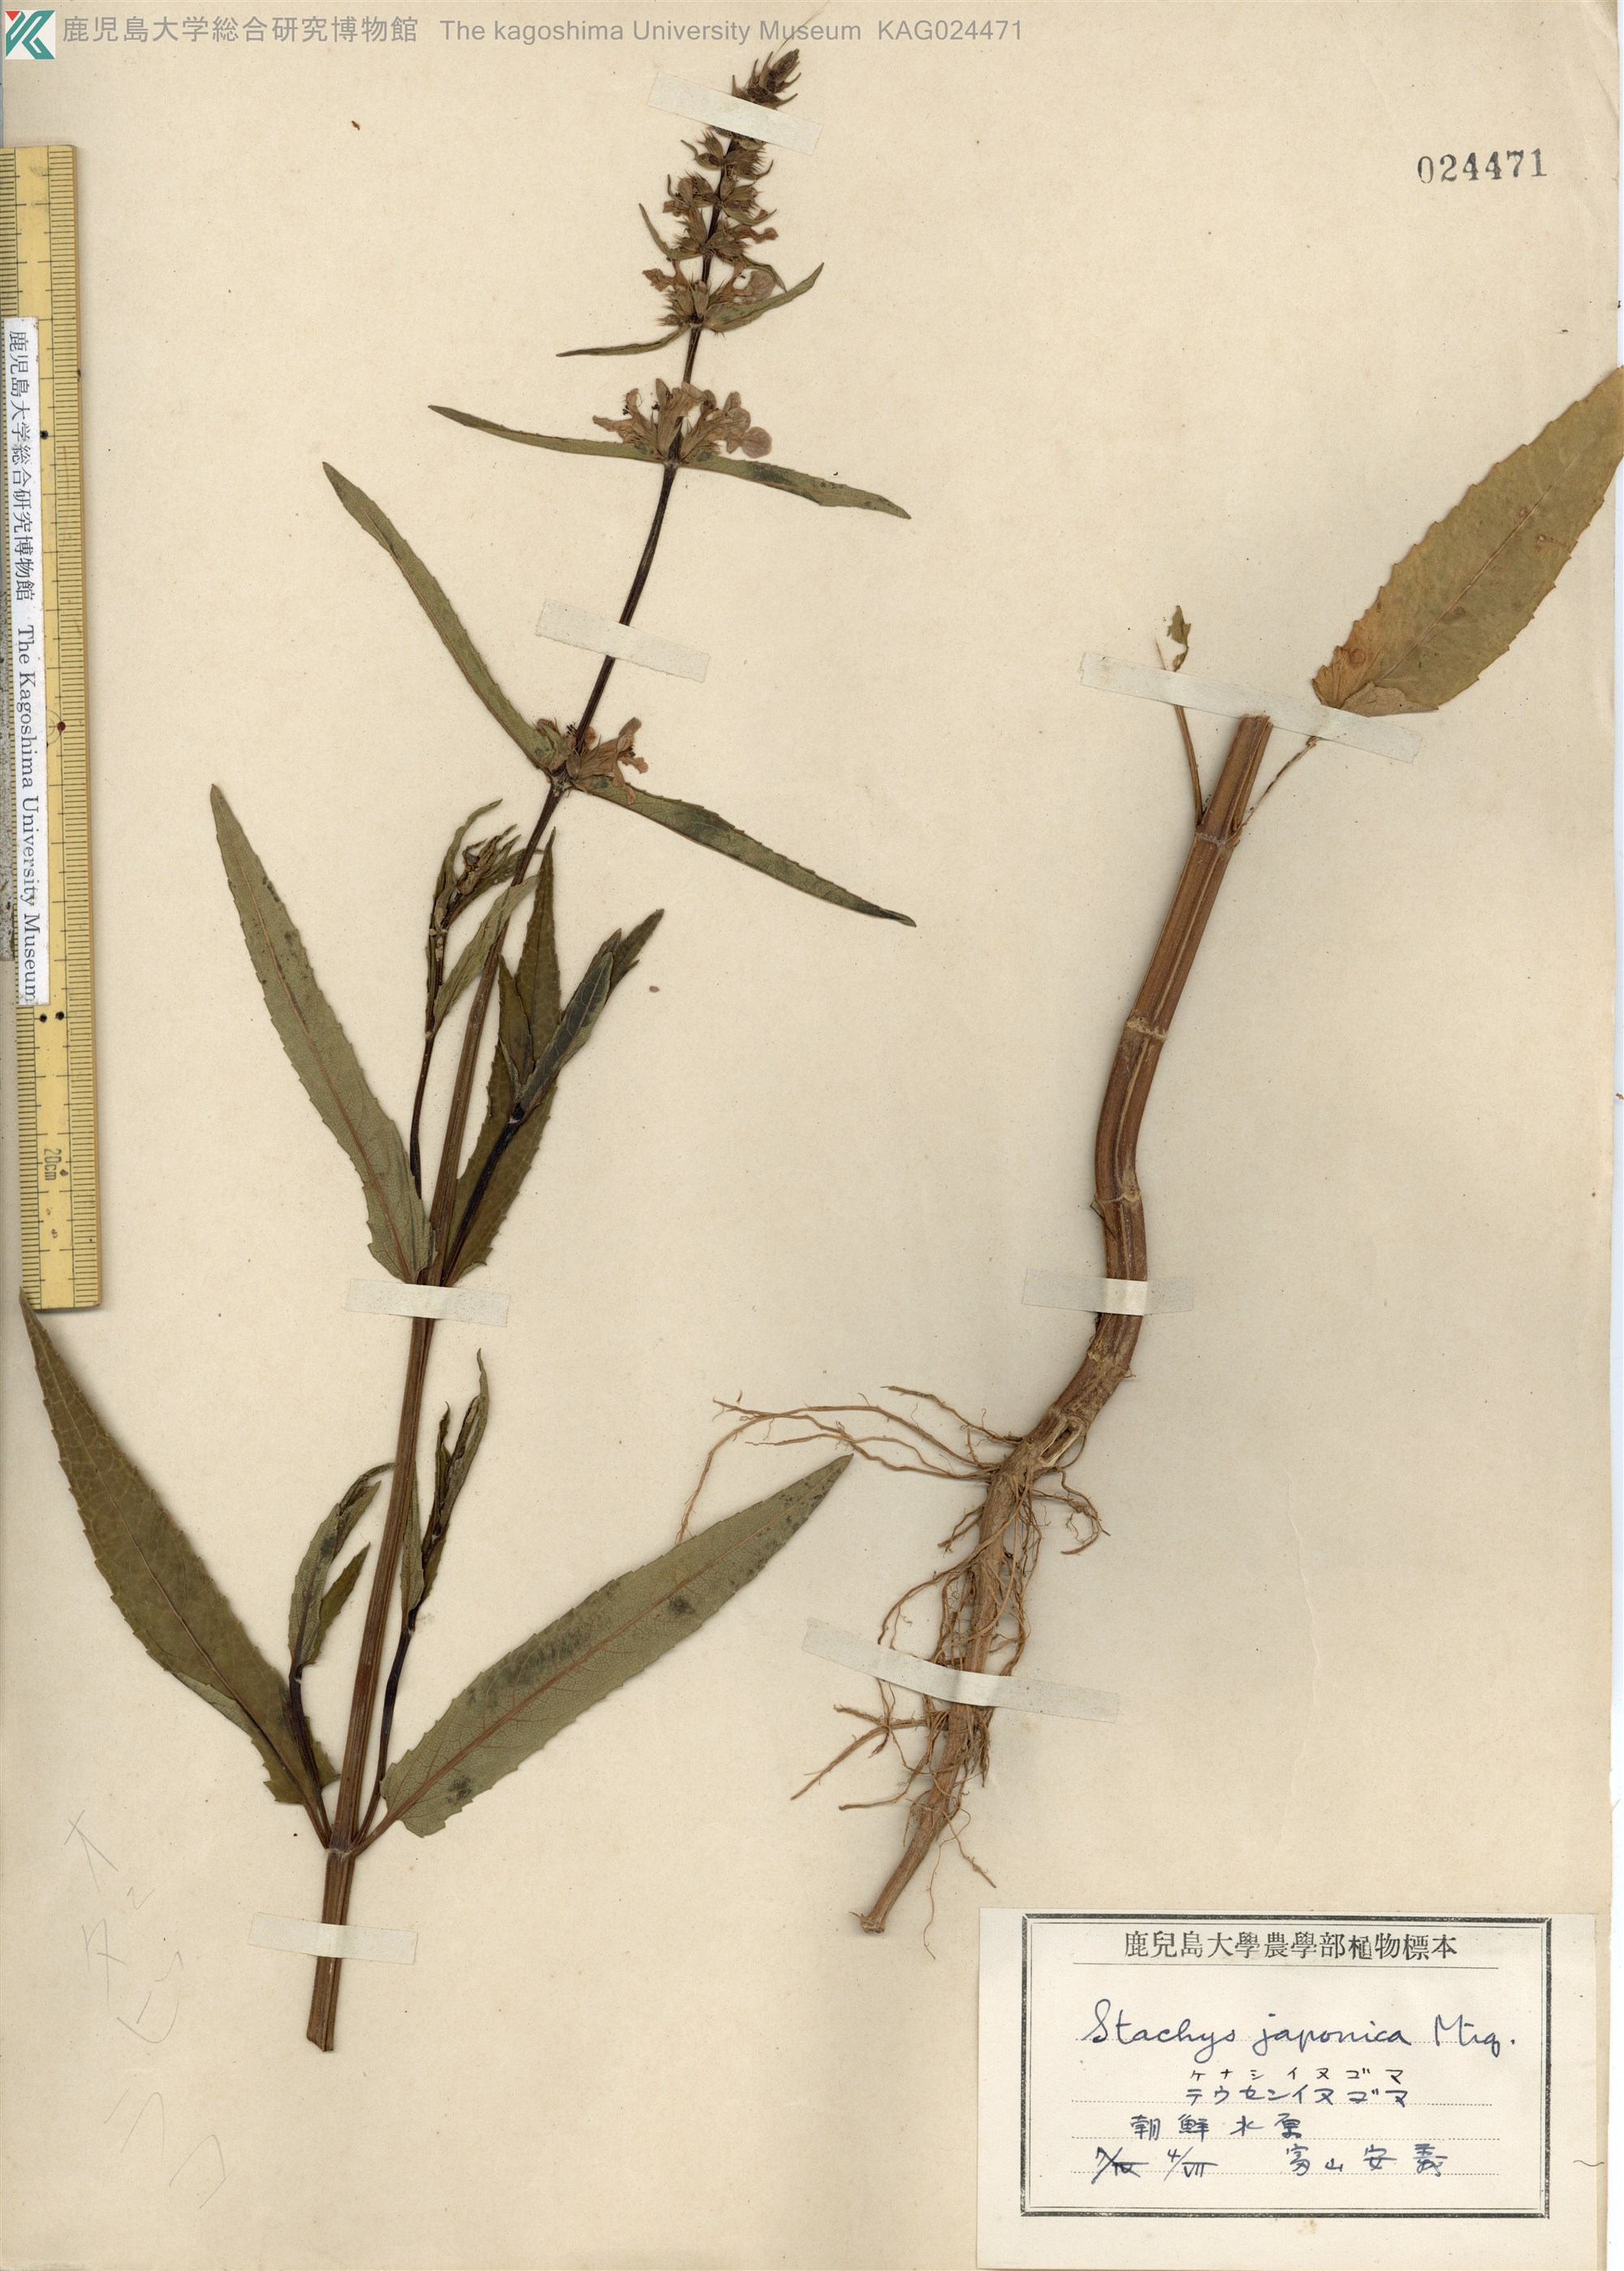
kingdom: Plantae
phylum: Tracheophyta
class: Magnoliopsida
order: Lamiales
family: Lamiaceae
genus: Stachys
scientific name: Stachys aspera
